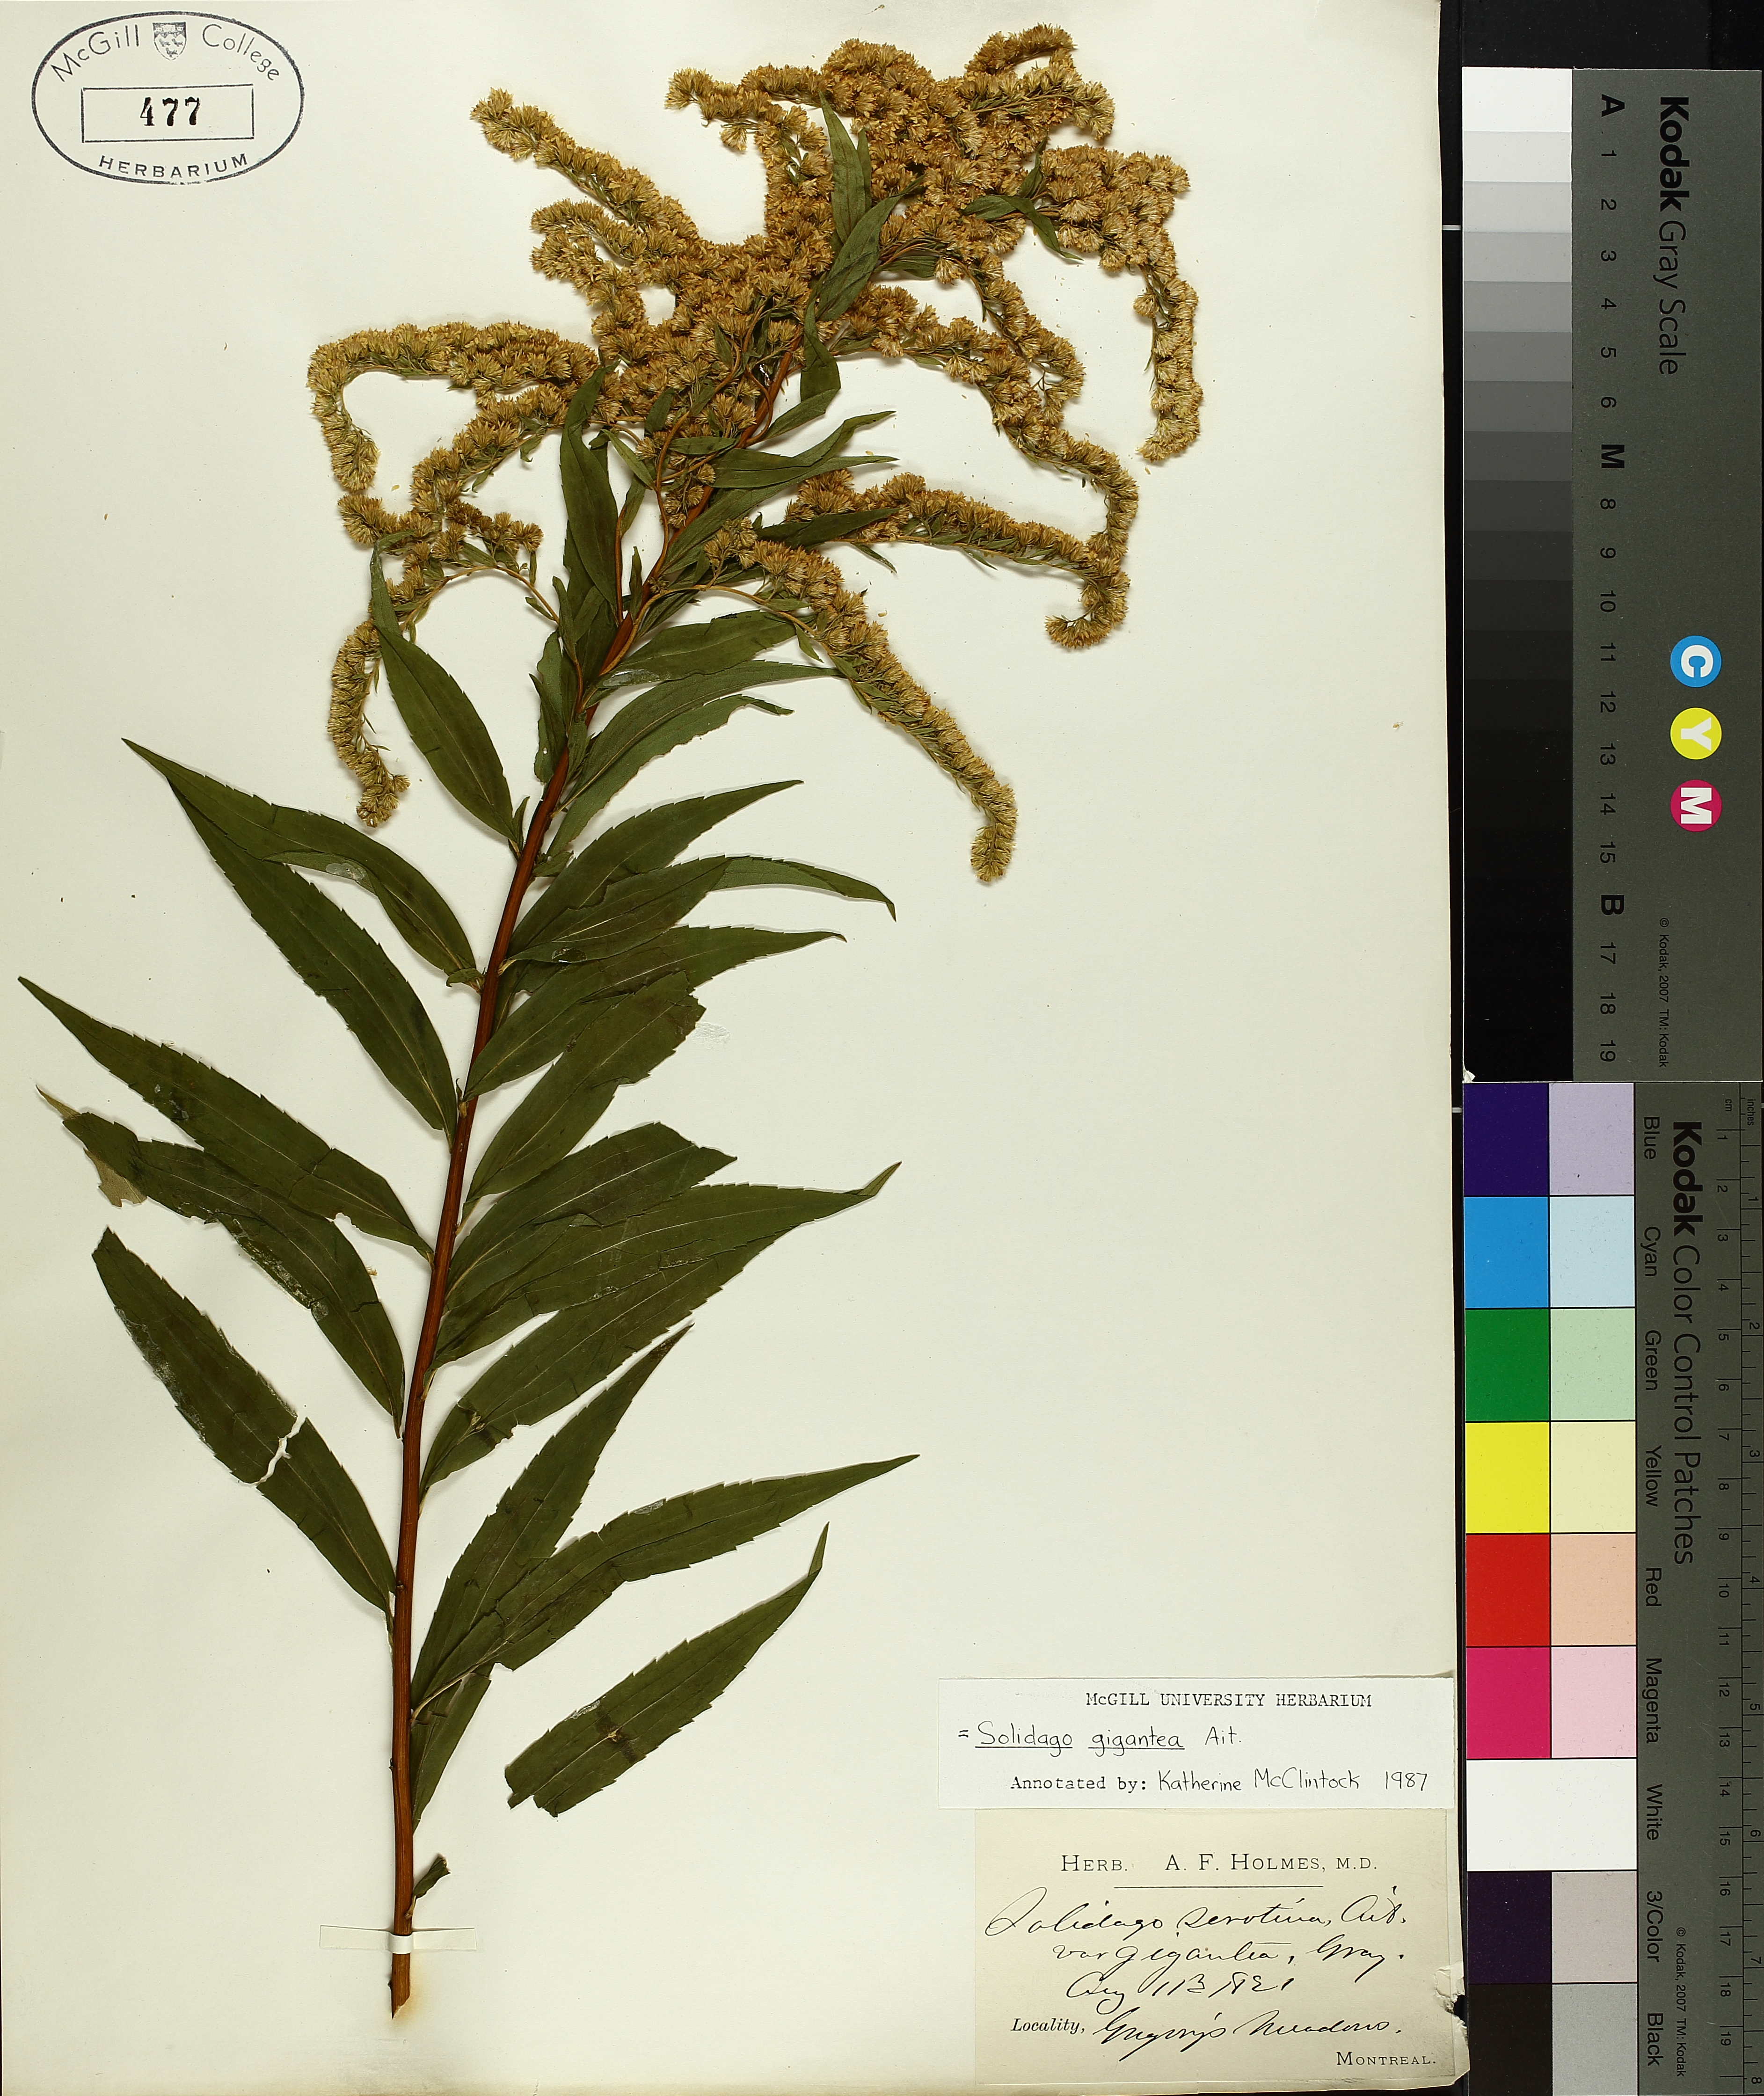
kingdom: Plantae
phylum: Tracheophyta
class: Magnoliopsida
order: Asterales
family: Asteraceae
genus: Solidago
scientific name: Solidago gigantea
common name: Giant goldenrod
